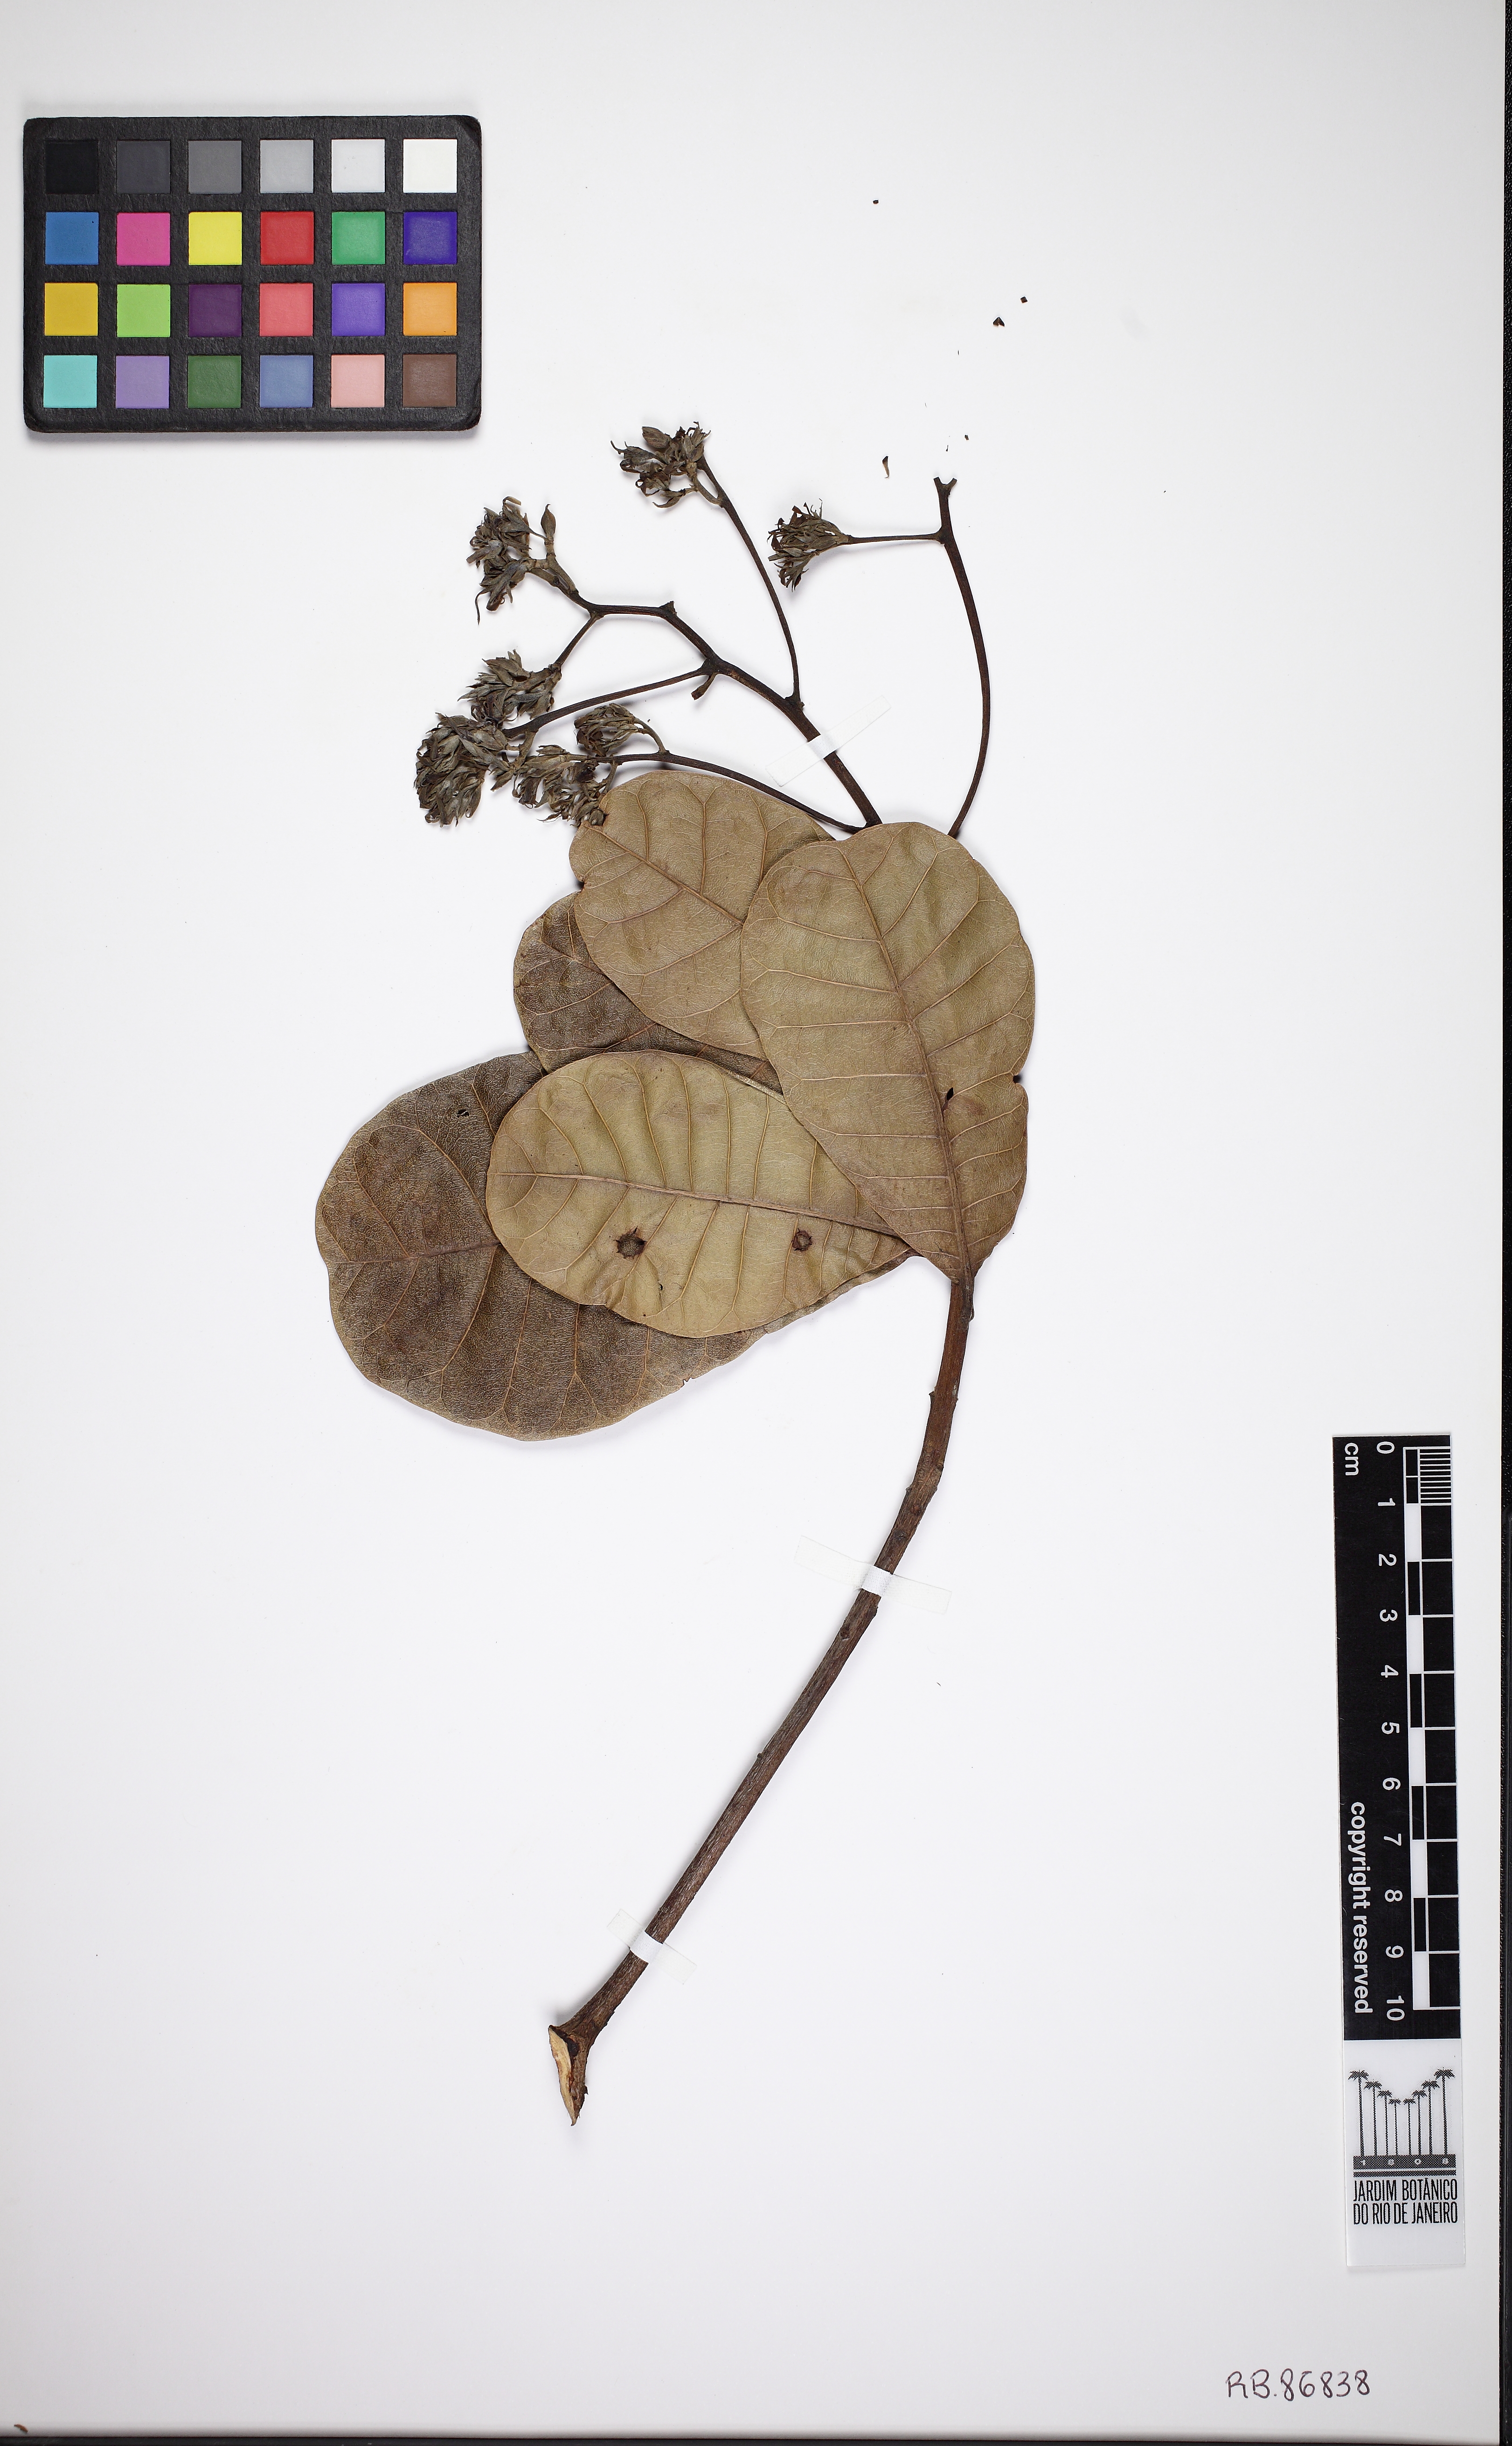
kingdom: Plantae
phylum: Tracheophyta
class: Magnoliopsida
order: Sapindales
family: Anacardiaceae
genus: Anacardium
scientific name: Anacardium
